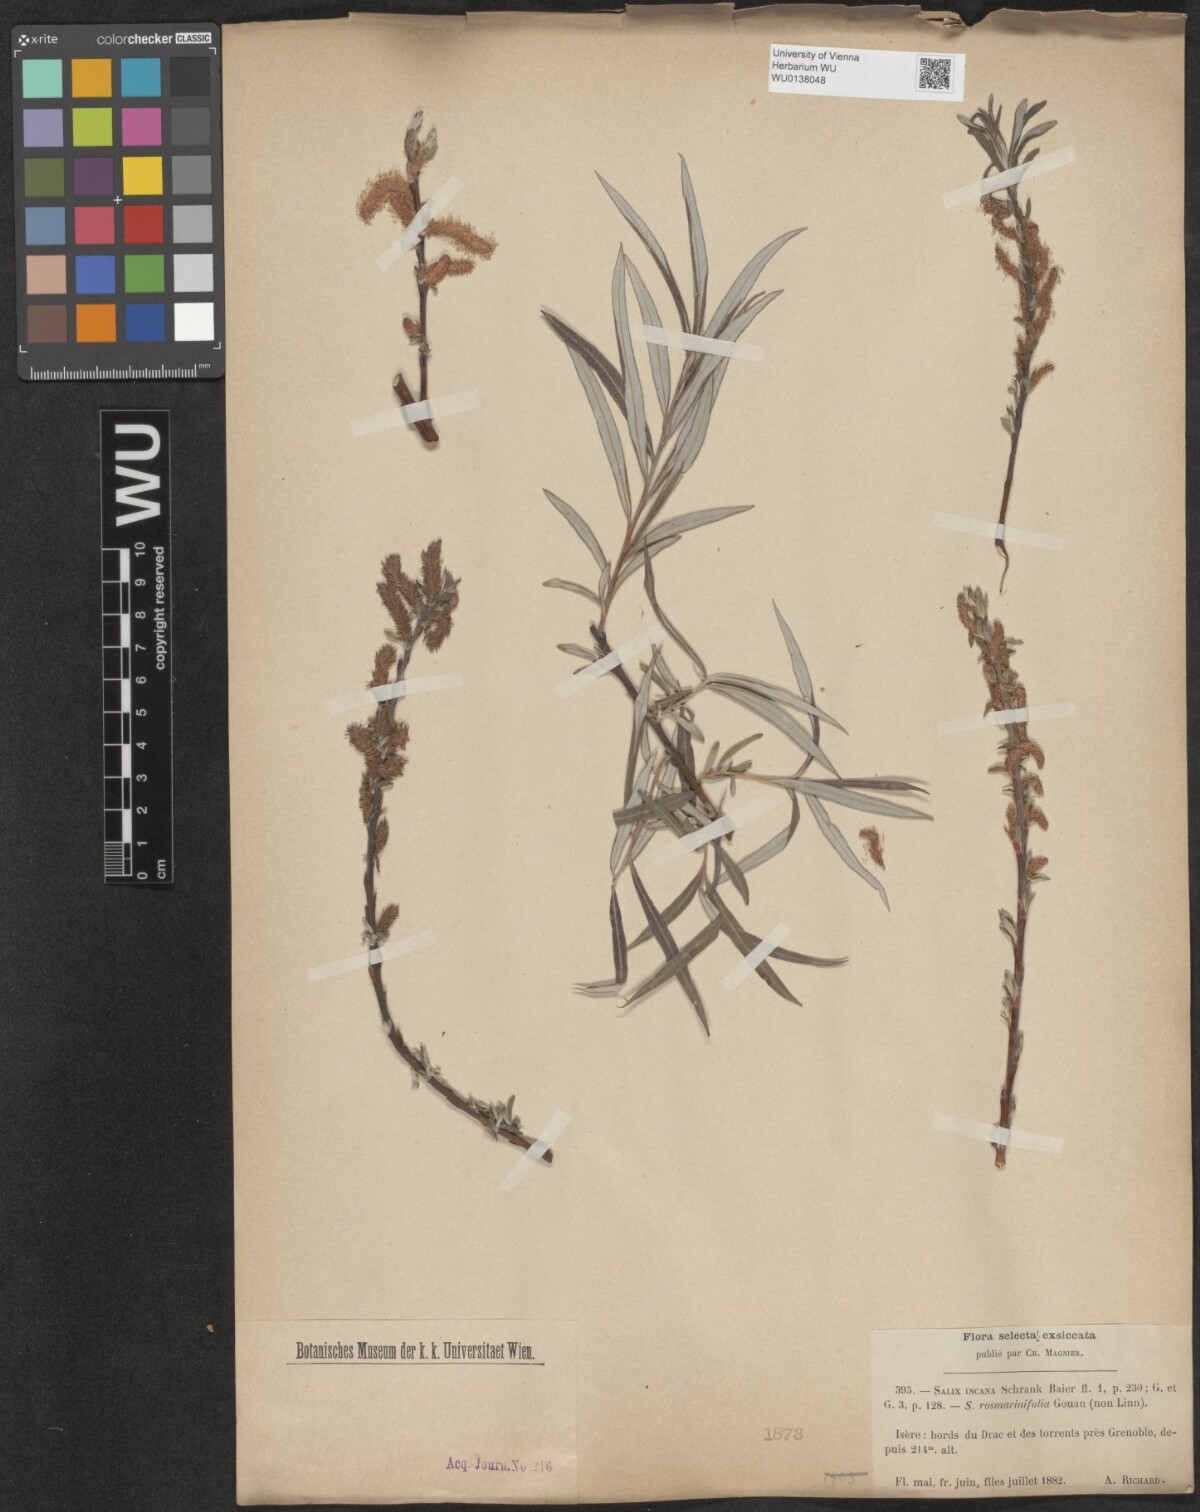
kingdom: Plantae
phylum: Tracheophyta
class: Magnoliopsida
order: Malpighiales
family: Salicaceae
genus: Salix
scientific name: Salix eleagnos
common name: Elaeagnus willow
